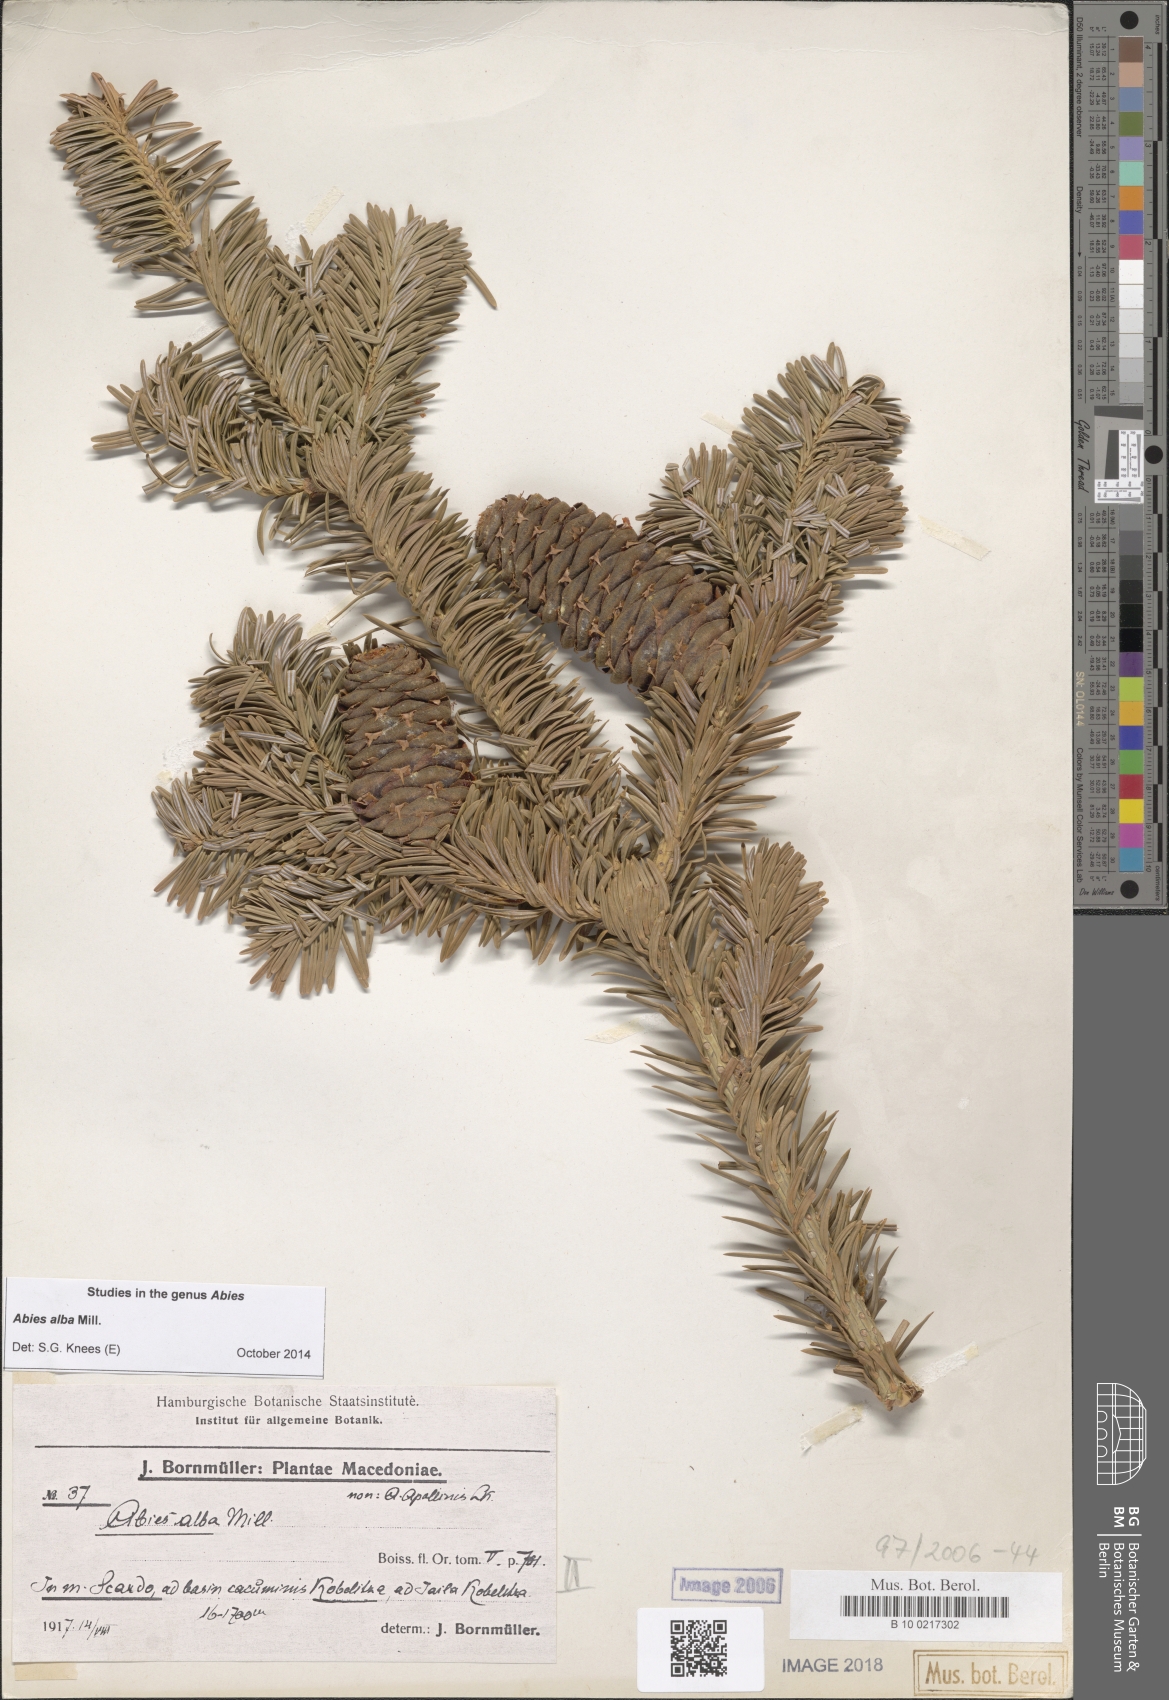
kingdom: Plantae
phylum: Tracheophyta
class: Pinopsida
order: Pinales
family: Pinaceae
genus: Abies
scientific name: Abies alba
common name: Silver fir
